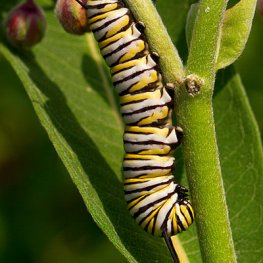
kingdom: Animalia
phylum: Arthropoda
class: Insecta
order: Lepidoptera
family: Nymphalidae
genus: Danaus
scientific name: Danaus plexippus
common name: Monarch
